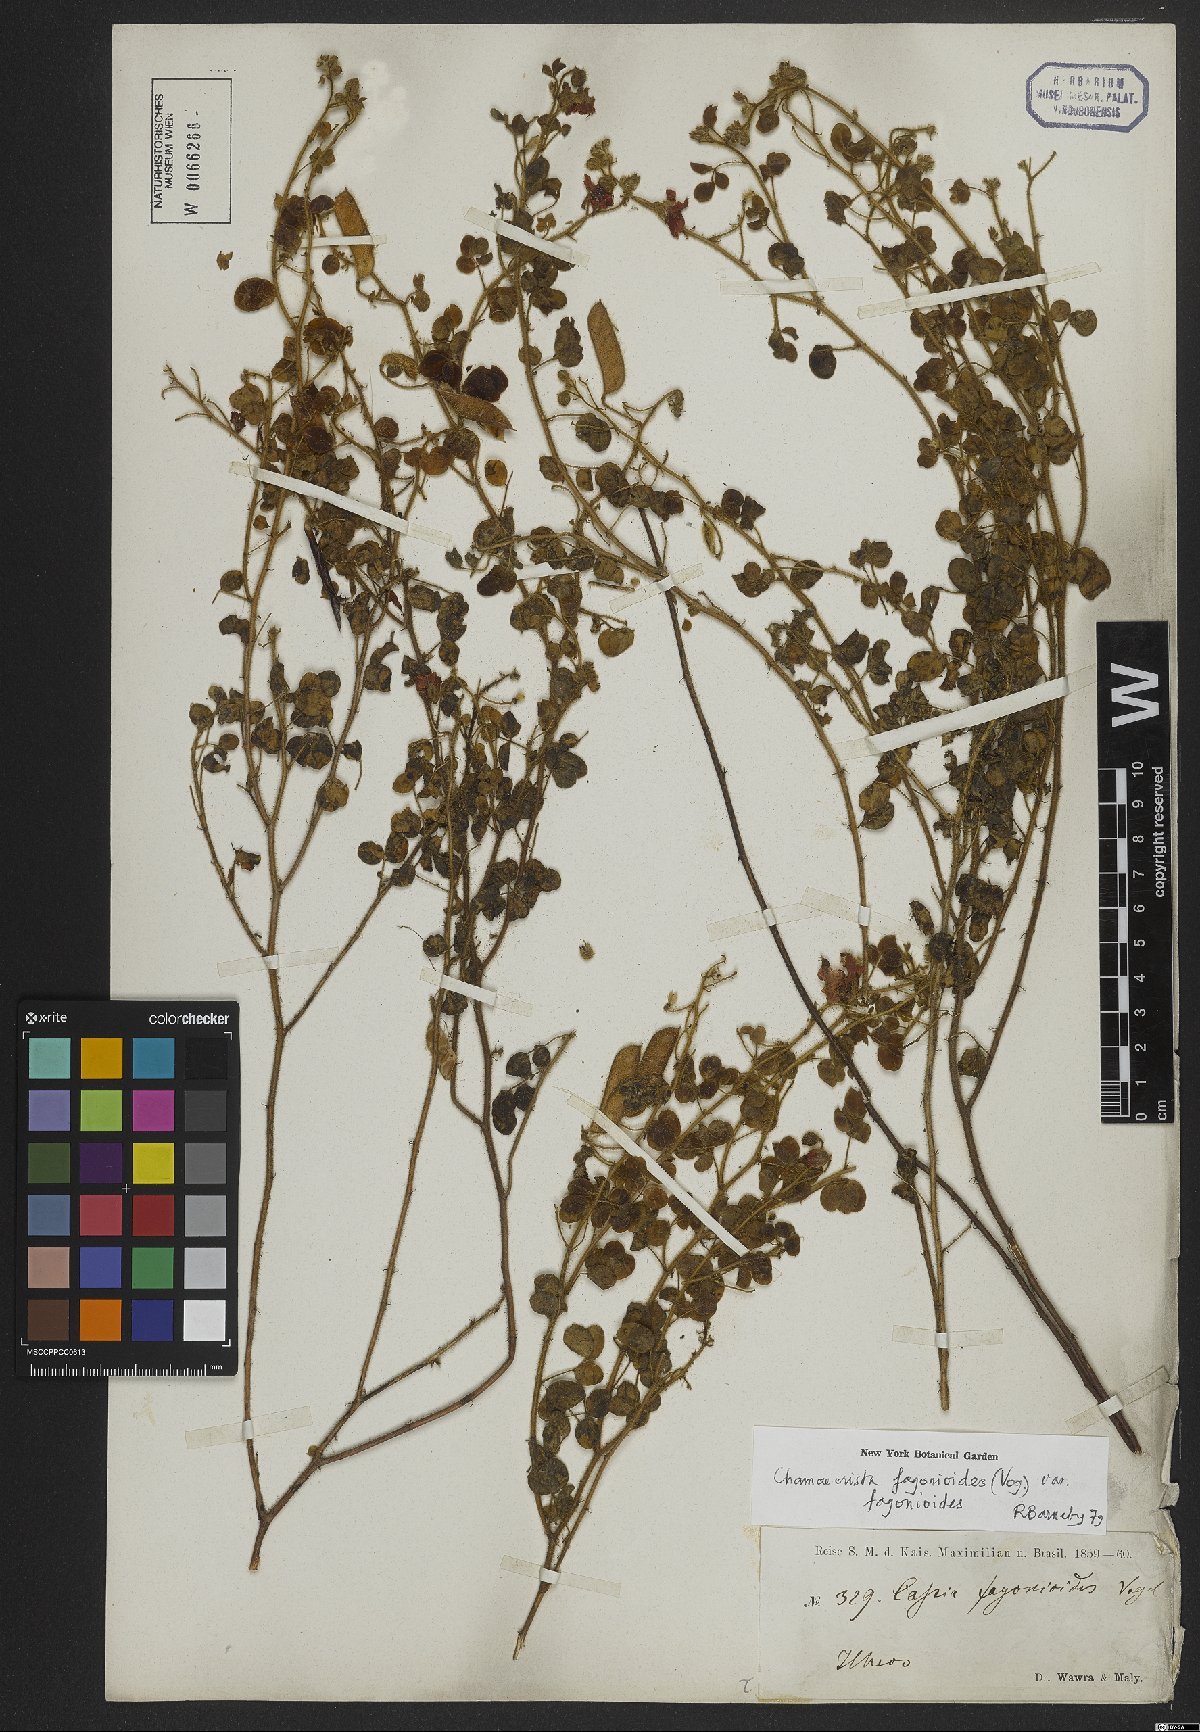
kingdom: Plantae
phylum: Tracheophyta
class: Magnoliopsida
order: Fabales
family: Fabaceae
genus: Chamaecrista
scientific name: Chamaecrista fagonioides
